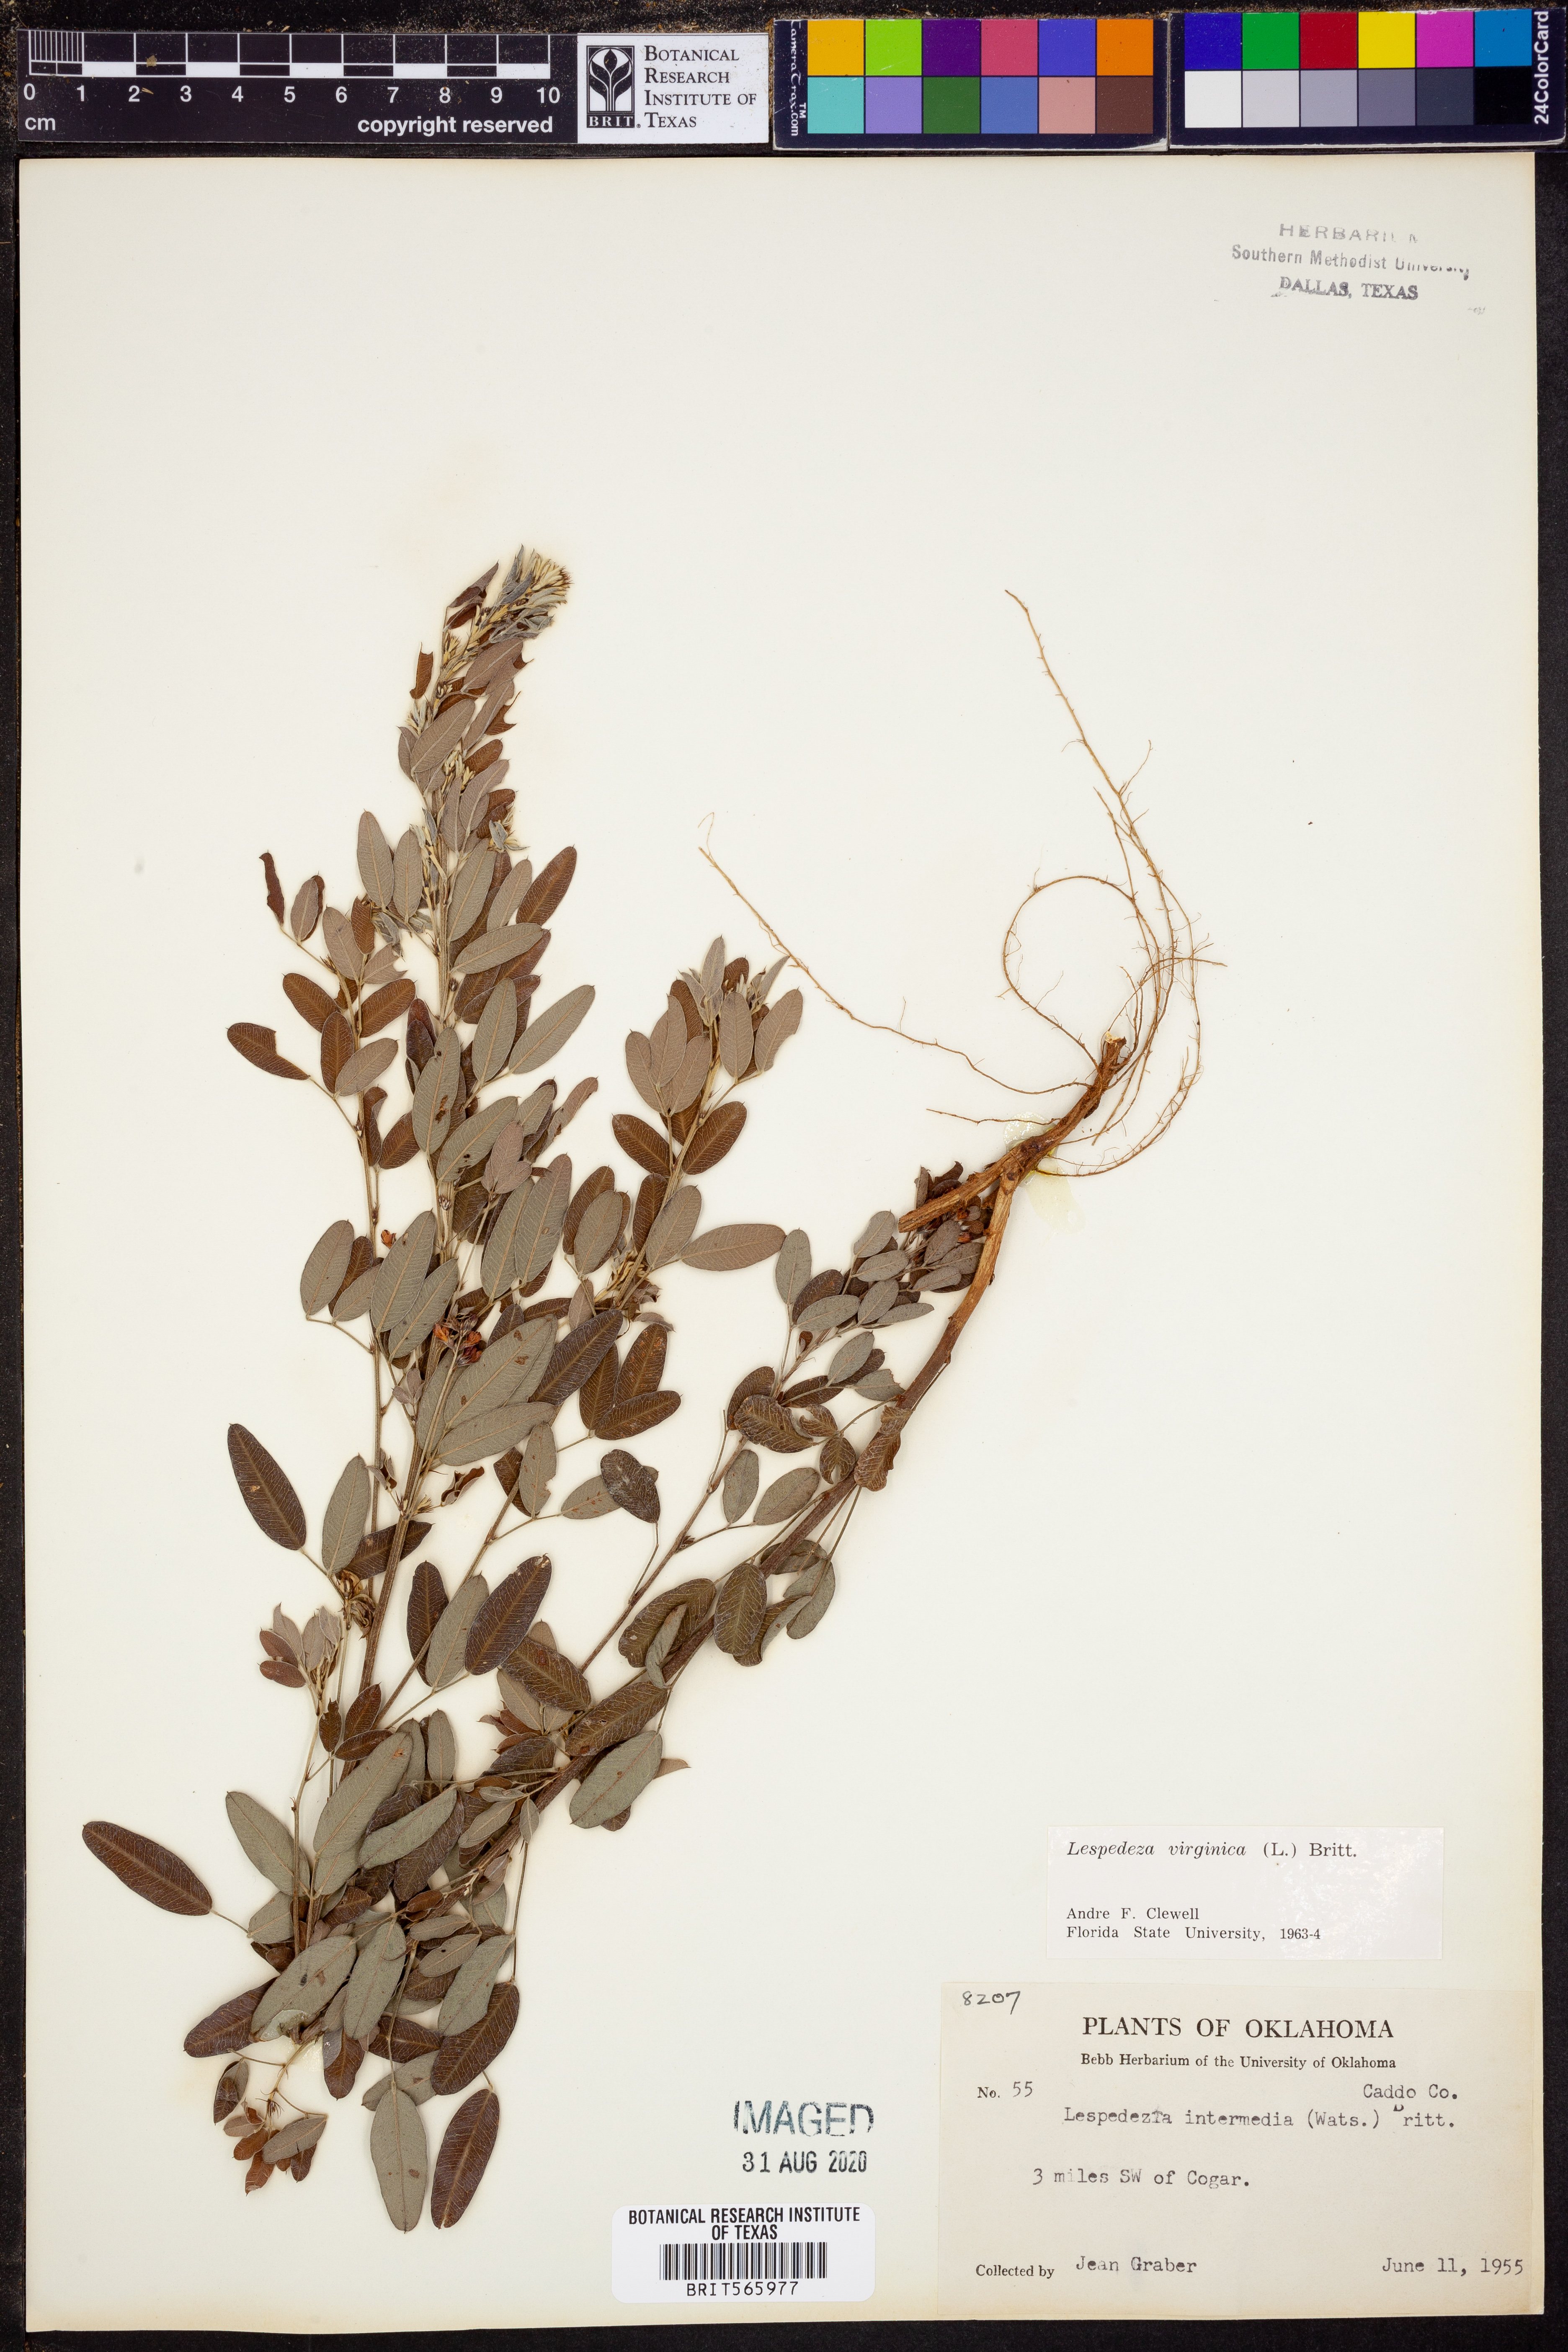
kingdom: Plantae
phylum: Tracheophyta
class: Magnoliopsida
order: Fabales
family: Fabaceae
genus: Lespedeza
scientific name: Lespedeza virginica
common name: Slender bush-clover
